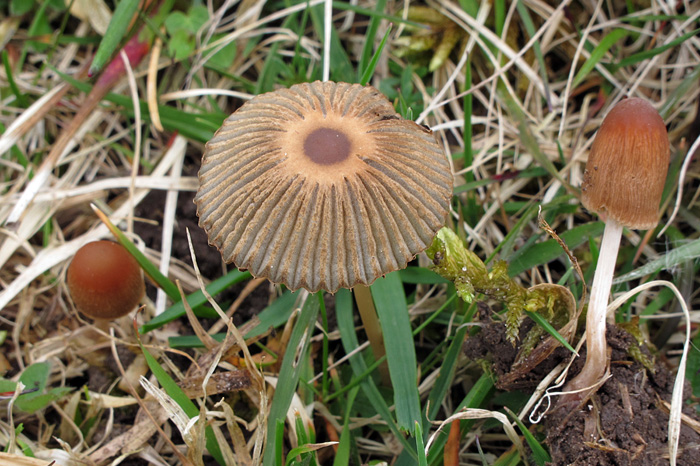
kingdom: Fungi
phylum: Basidiomycota
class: Agaricomycetes
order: Agaricales
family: Psathyrellaceae
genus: Parasola
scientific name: Parasola schroeteri
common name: bredsporet hjulhat
